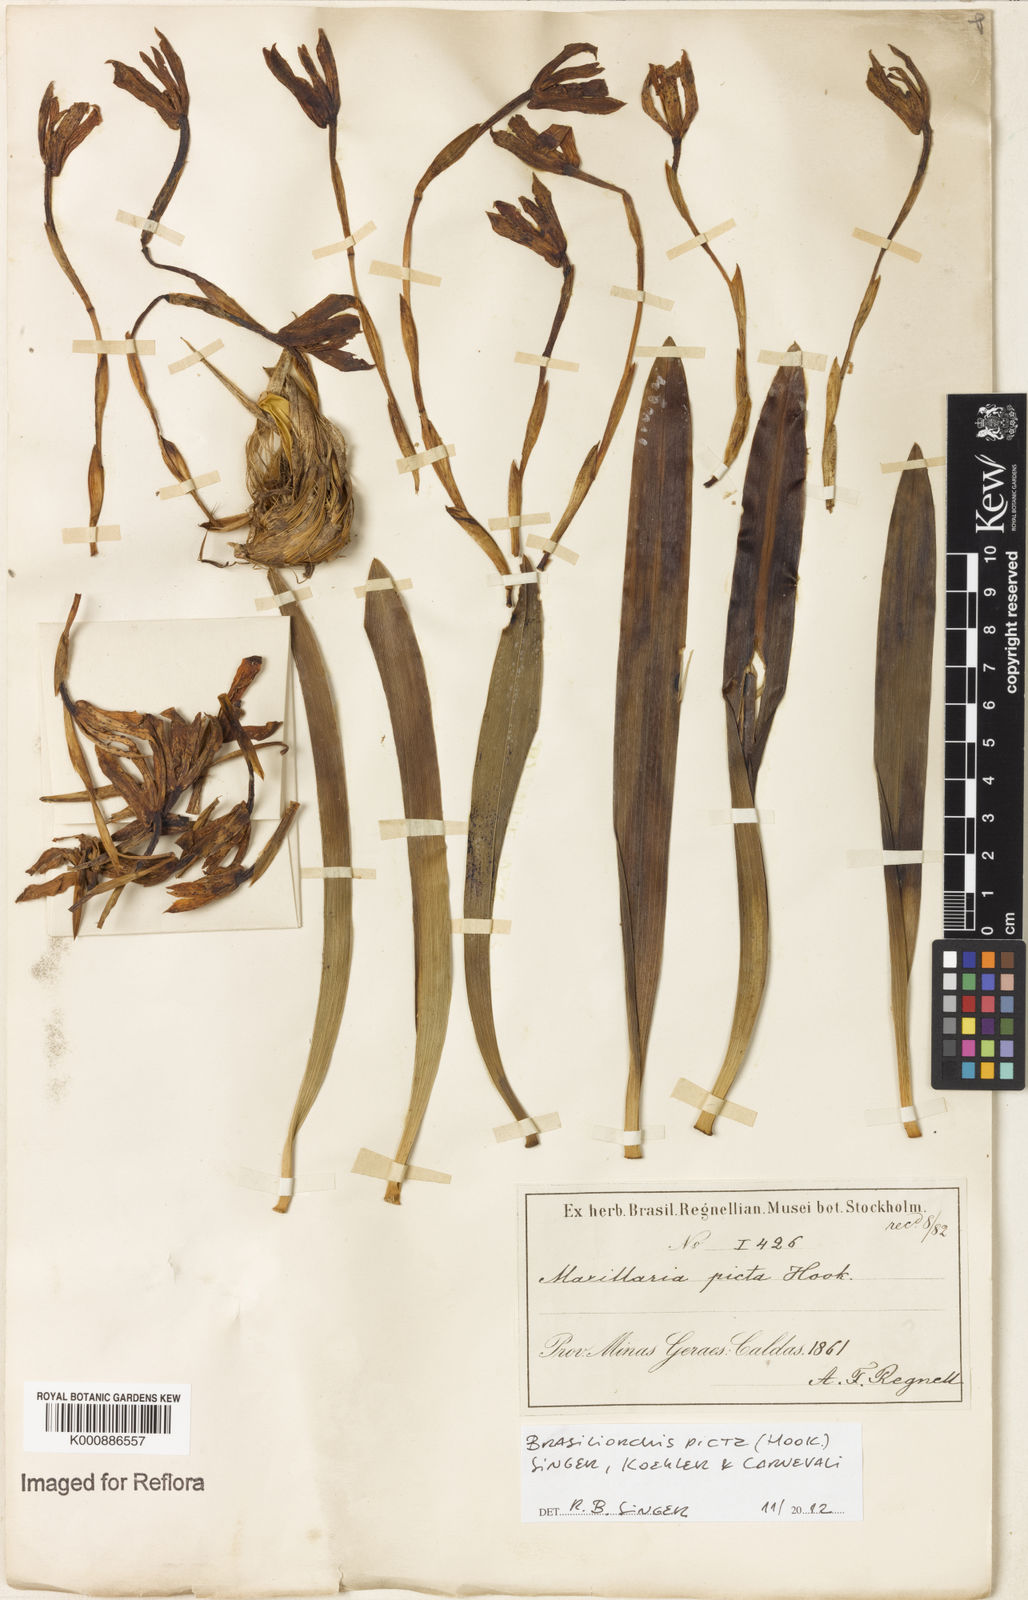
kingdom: Plantae
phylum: Tracheophyta
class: Liliopsida
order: Asparagales
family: Orchidaceae
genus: Maxillaria
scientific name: Maxillaria
